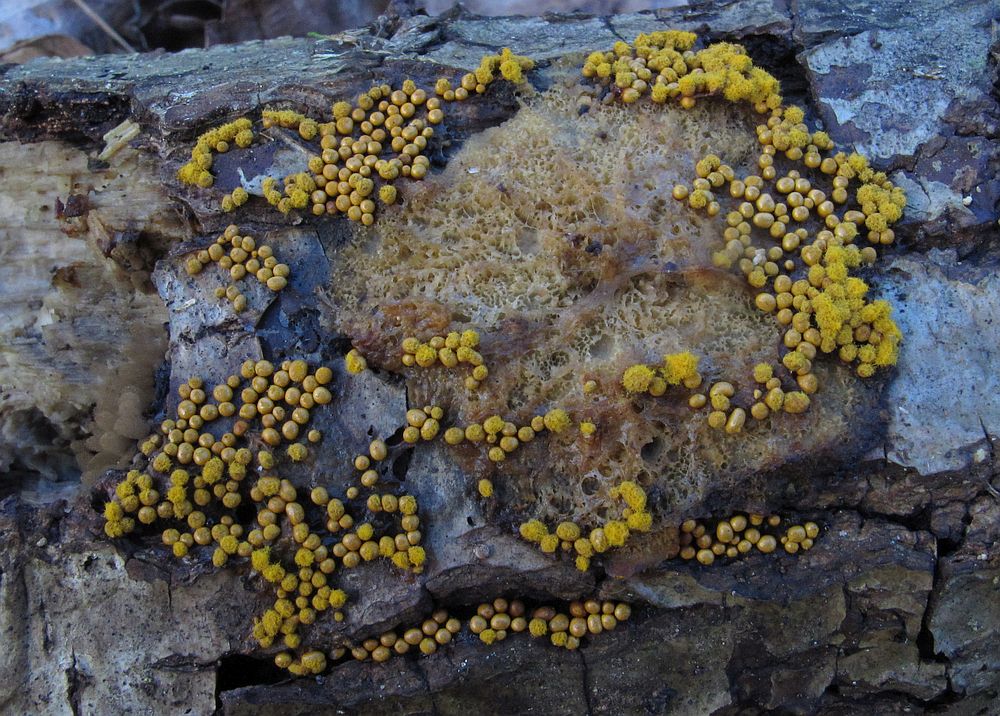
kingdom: Protozoa
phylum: Mycetozoa
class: Myxomycetes
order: Trichiales
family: Trichiaceae
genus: Trichia
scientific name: Trichia varia
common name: foranderlig hårbold
